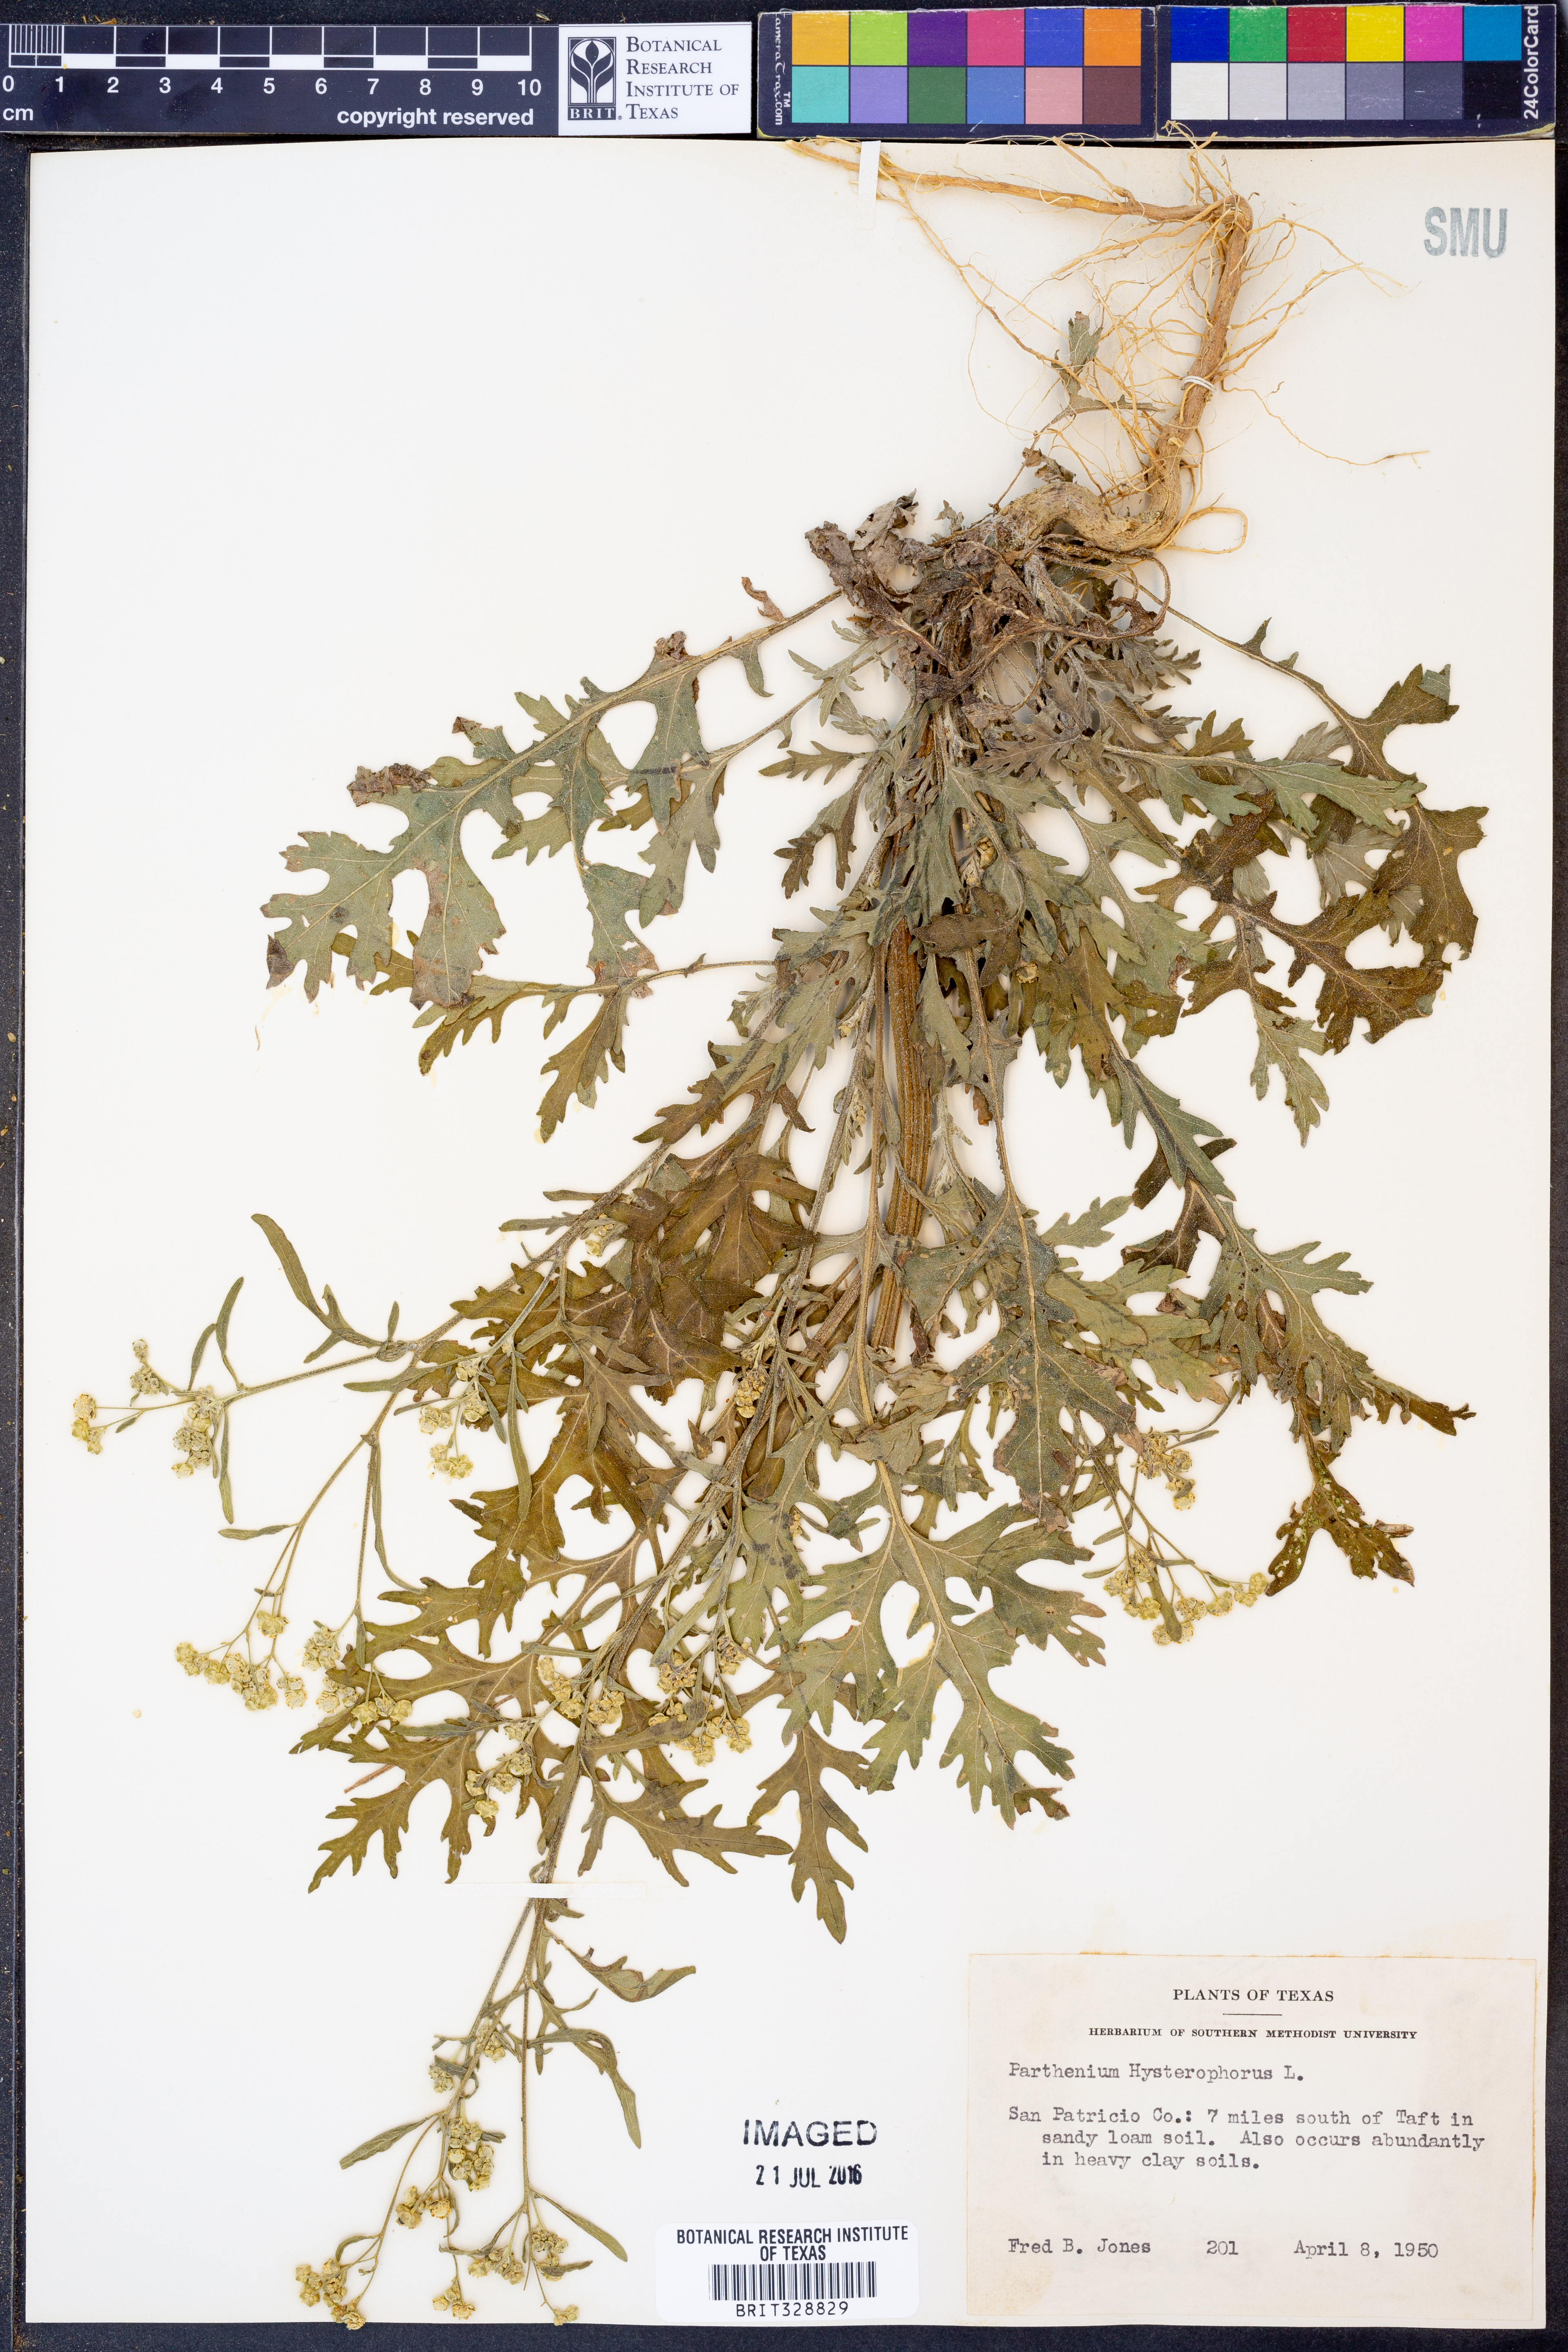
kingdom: Plantae
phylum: Tracheophyta
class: Magnoliopsida
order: Asterales
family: Asteraceae
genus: Parthenium
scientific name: Parthenium hysterophorus
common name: Santa maria feverfew
